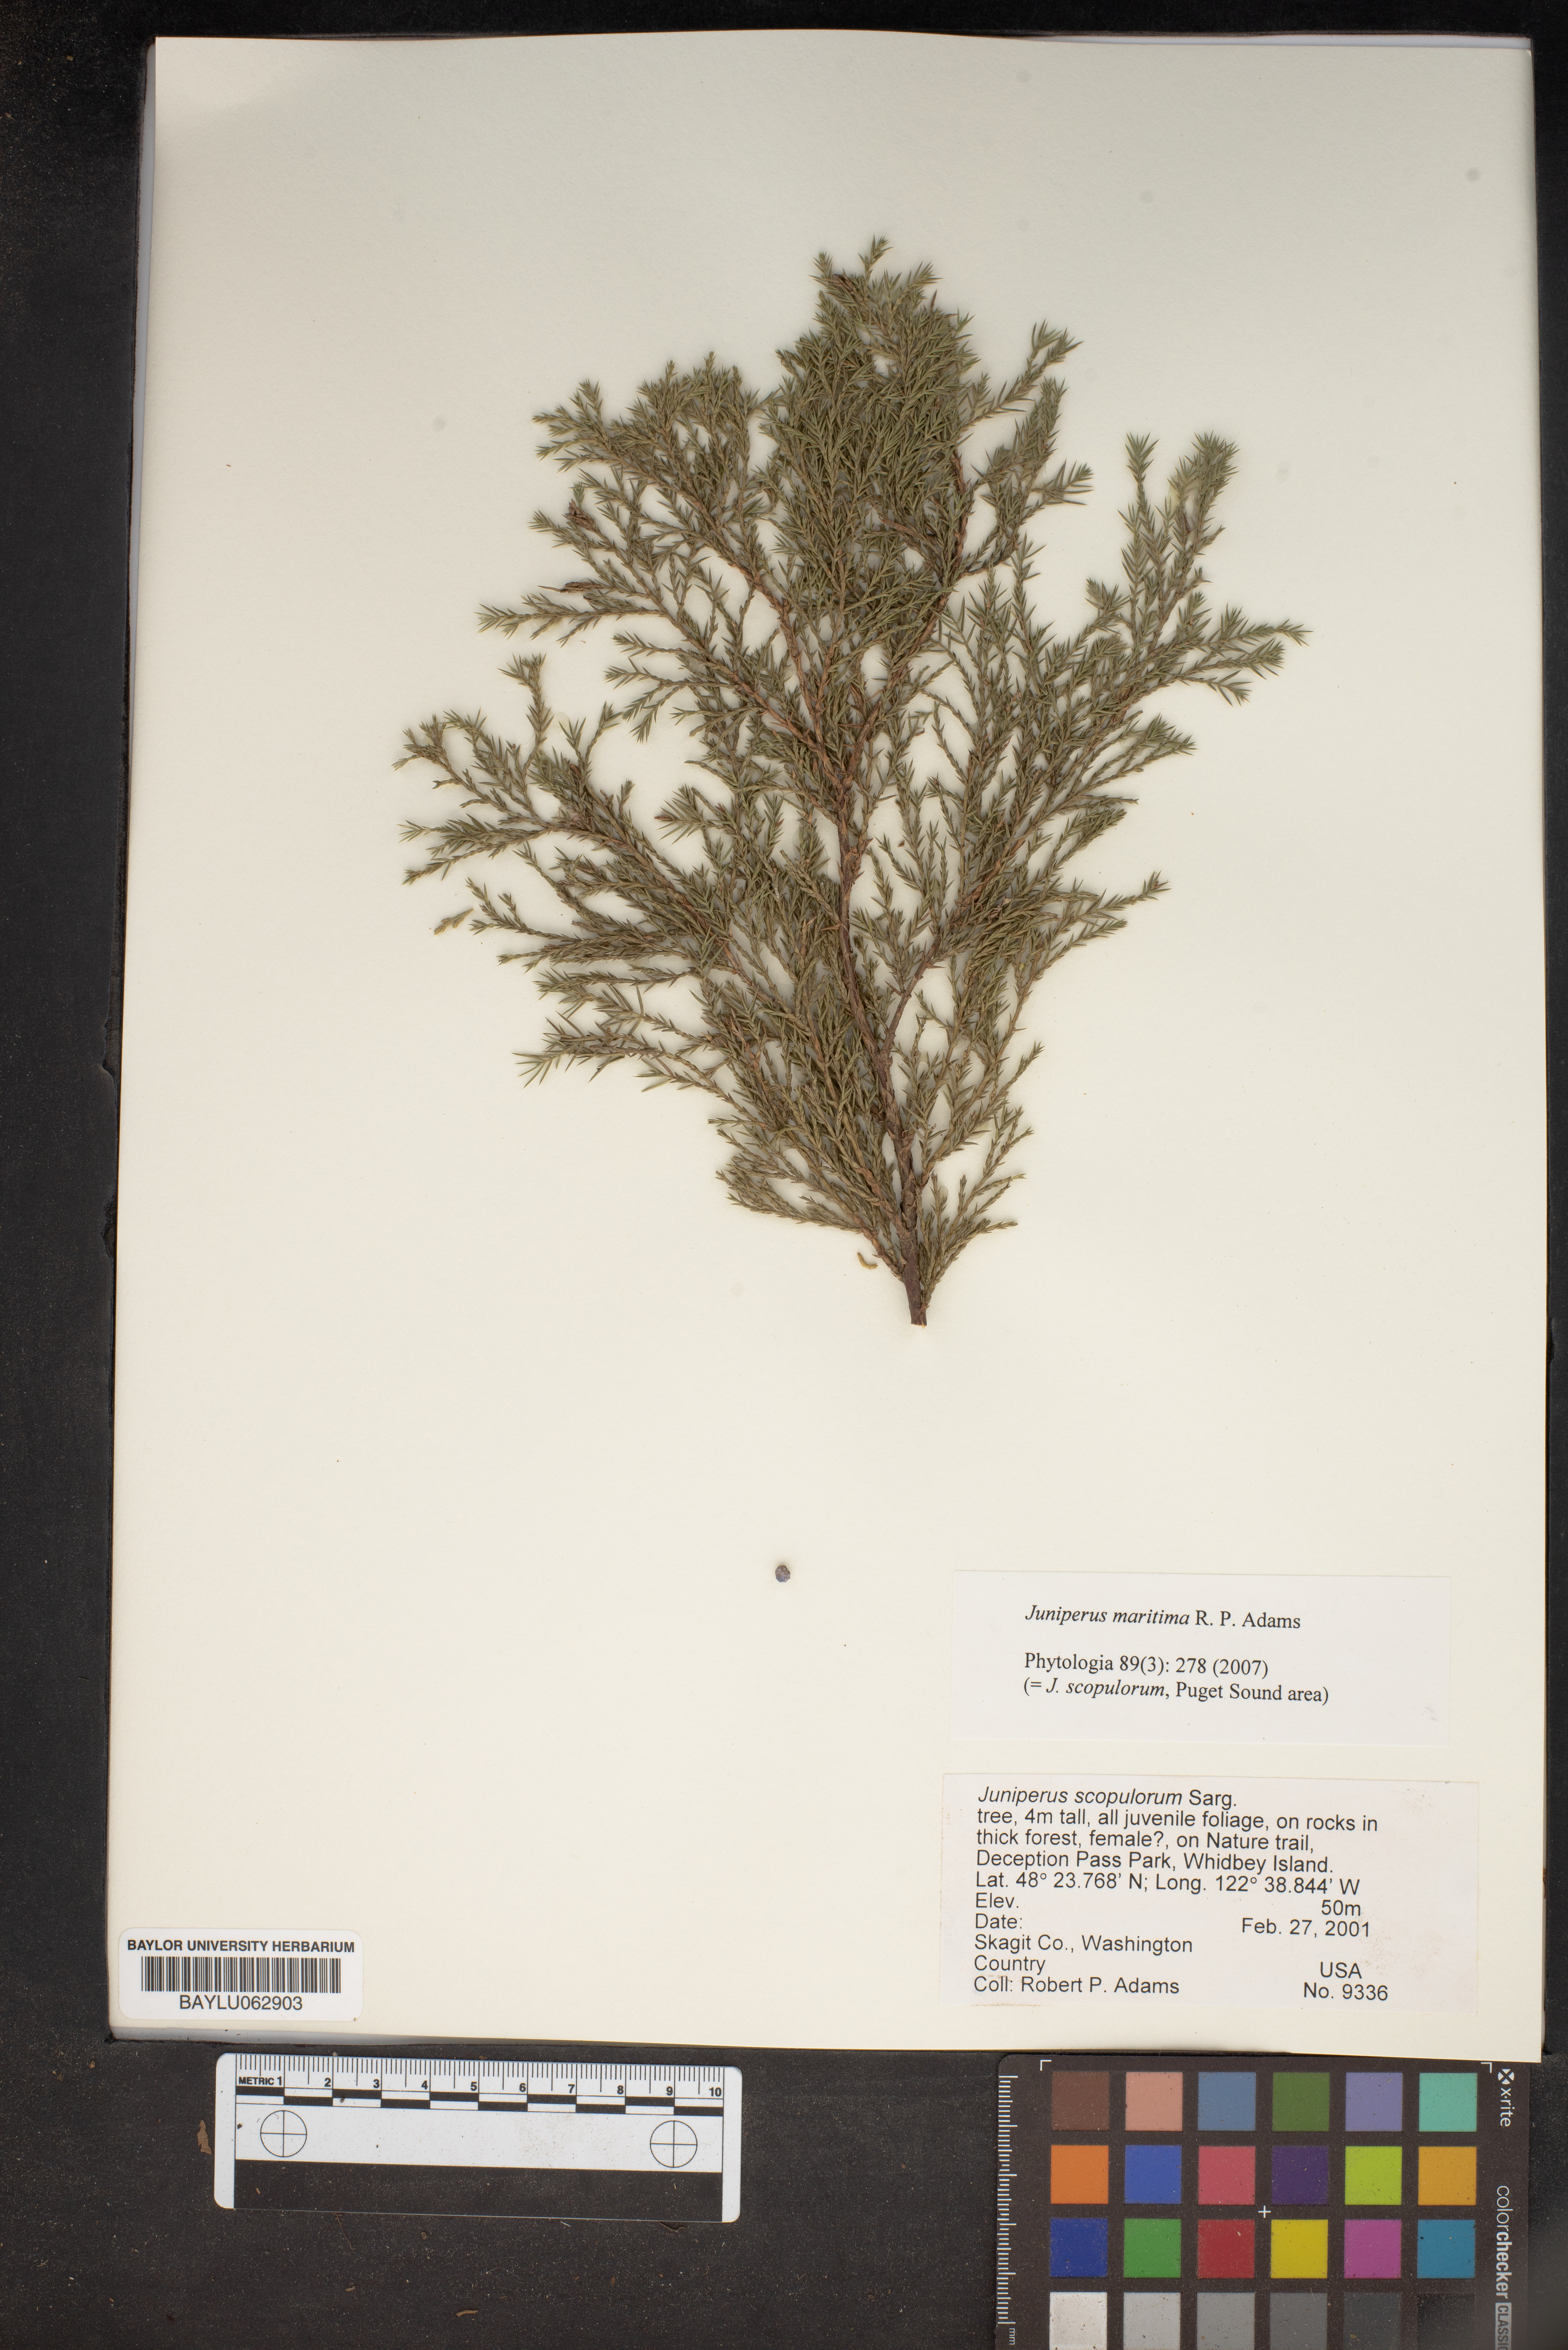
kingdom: Plantae
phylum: Tracheophyta
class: Pinopsida
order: Pinales
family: Cupressaceae
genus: Juniperus
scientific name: Juniperus scopulorum
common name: Rocky mountain juniper
